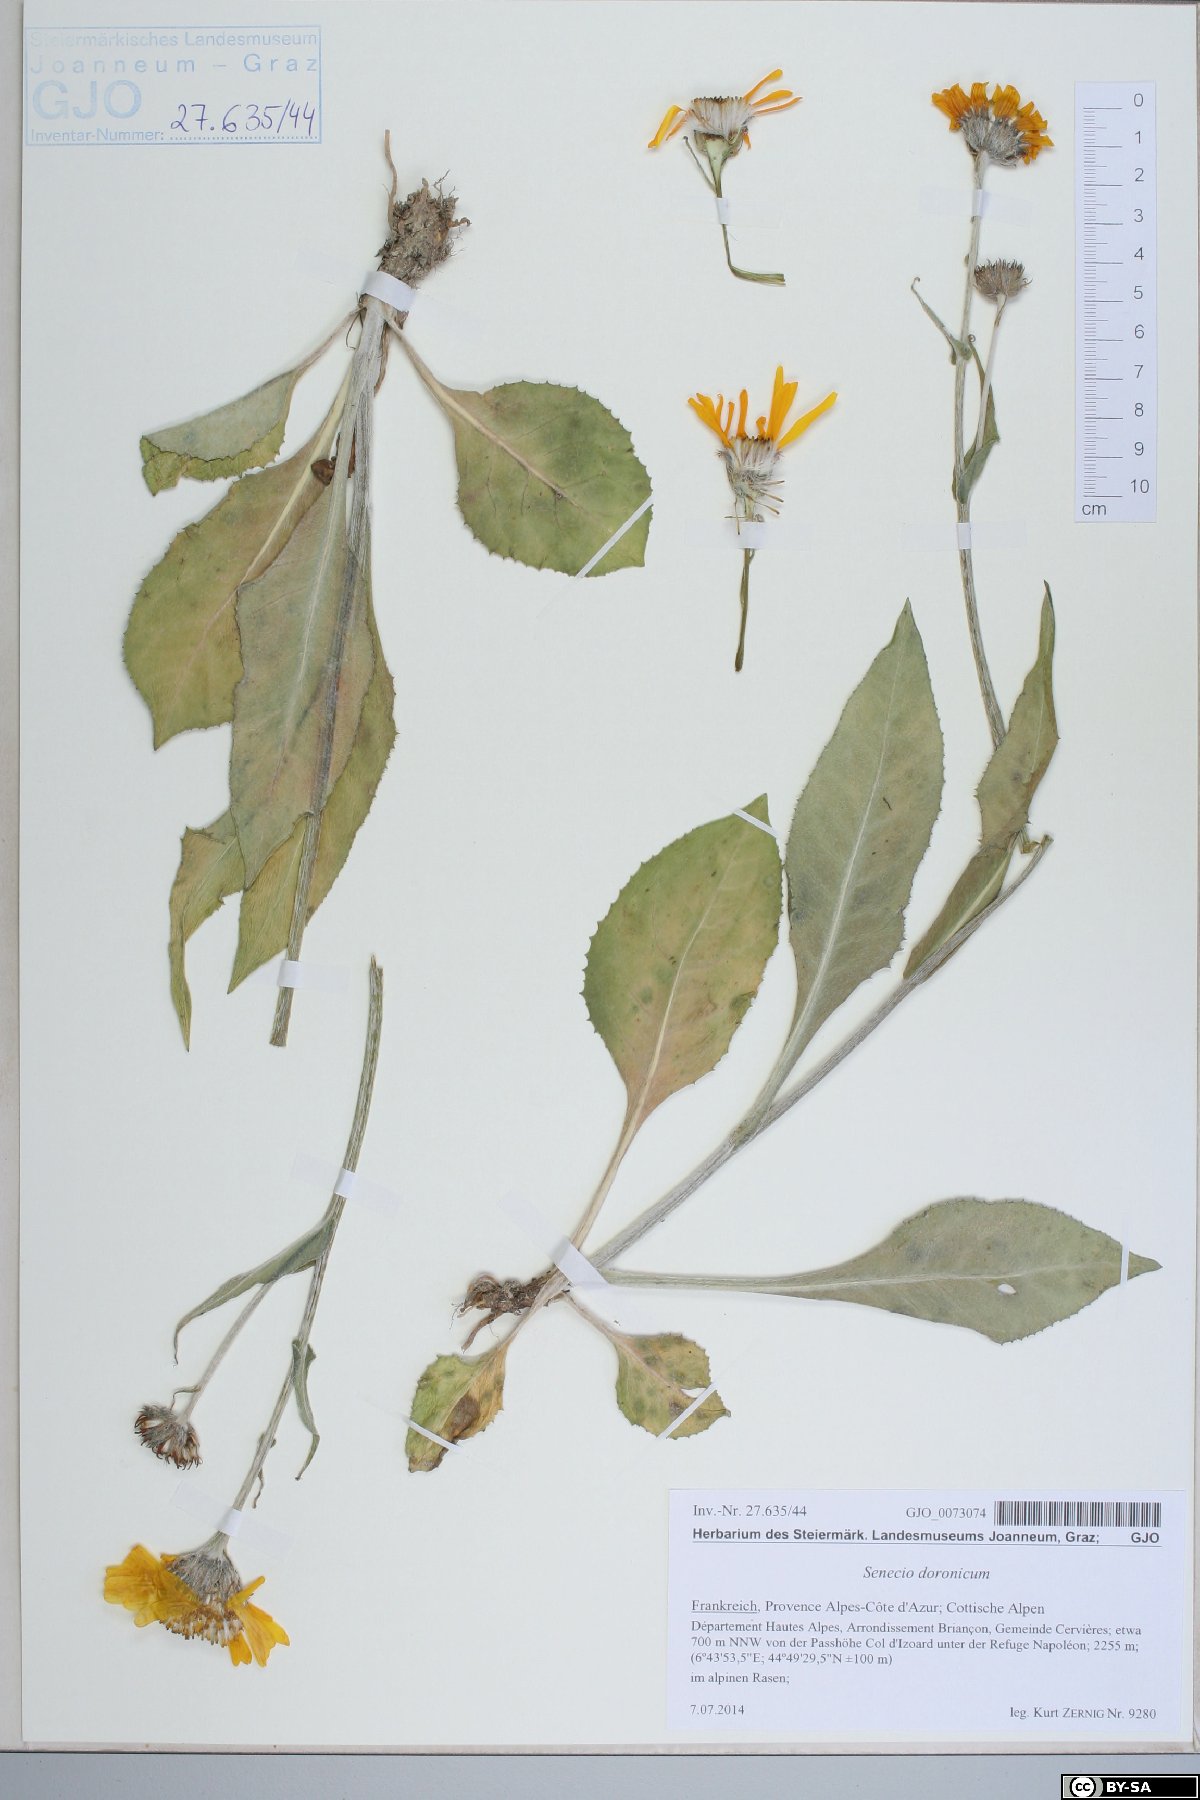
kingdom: Plantae
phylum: Tracheophyta
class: Magnoliopsida
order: Asterales
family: Asteraceae
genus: Senecio
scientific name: Senecio doronicum
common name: Chamois ragwort
